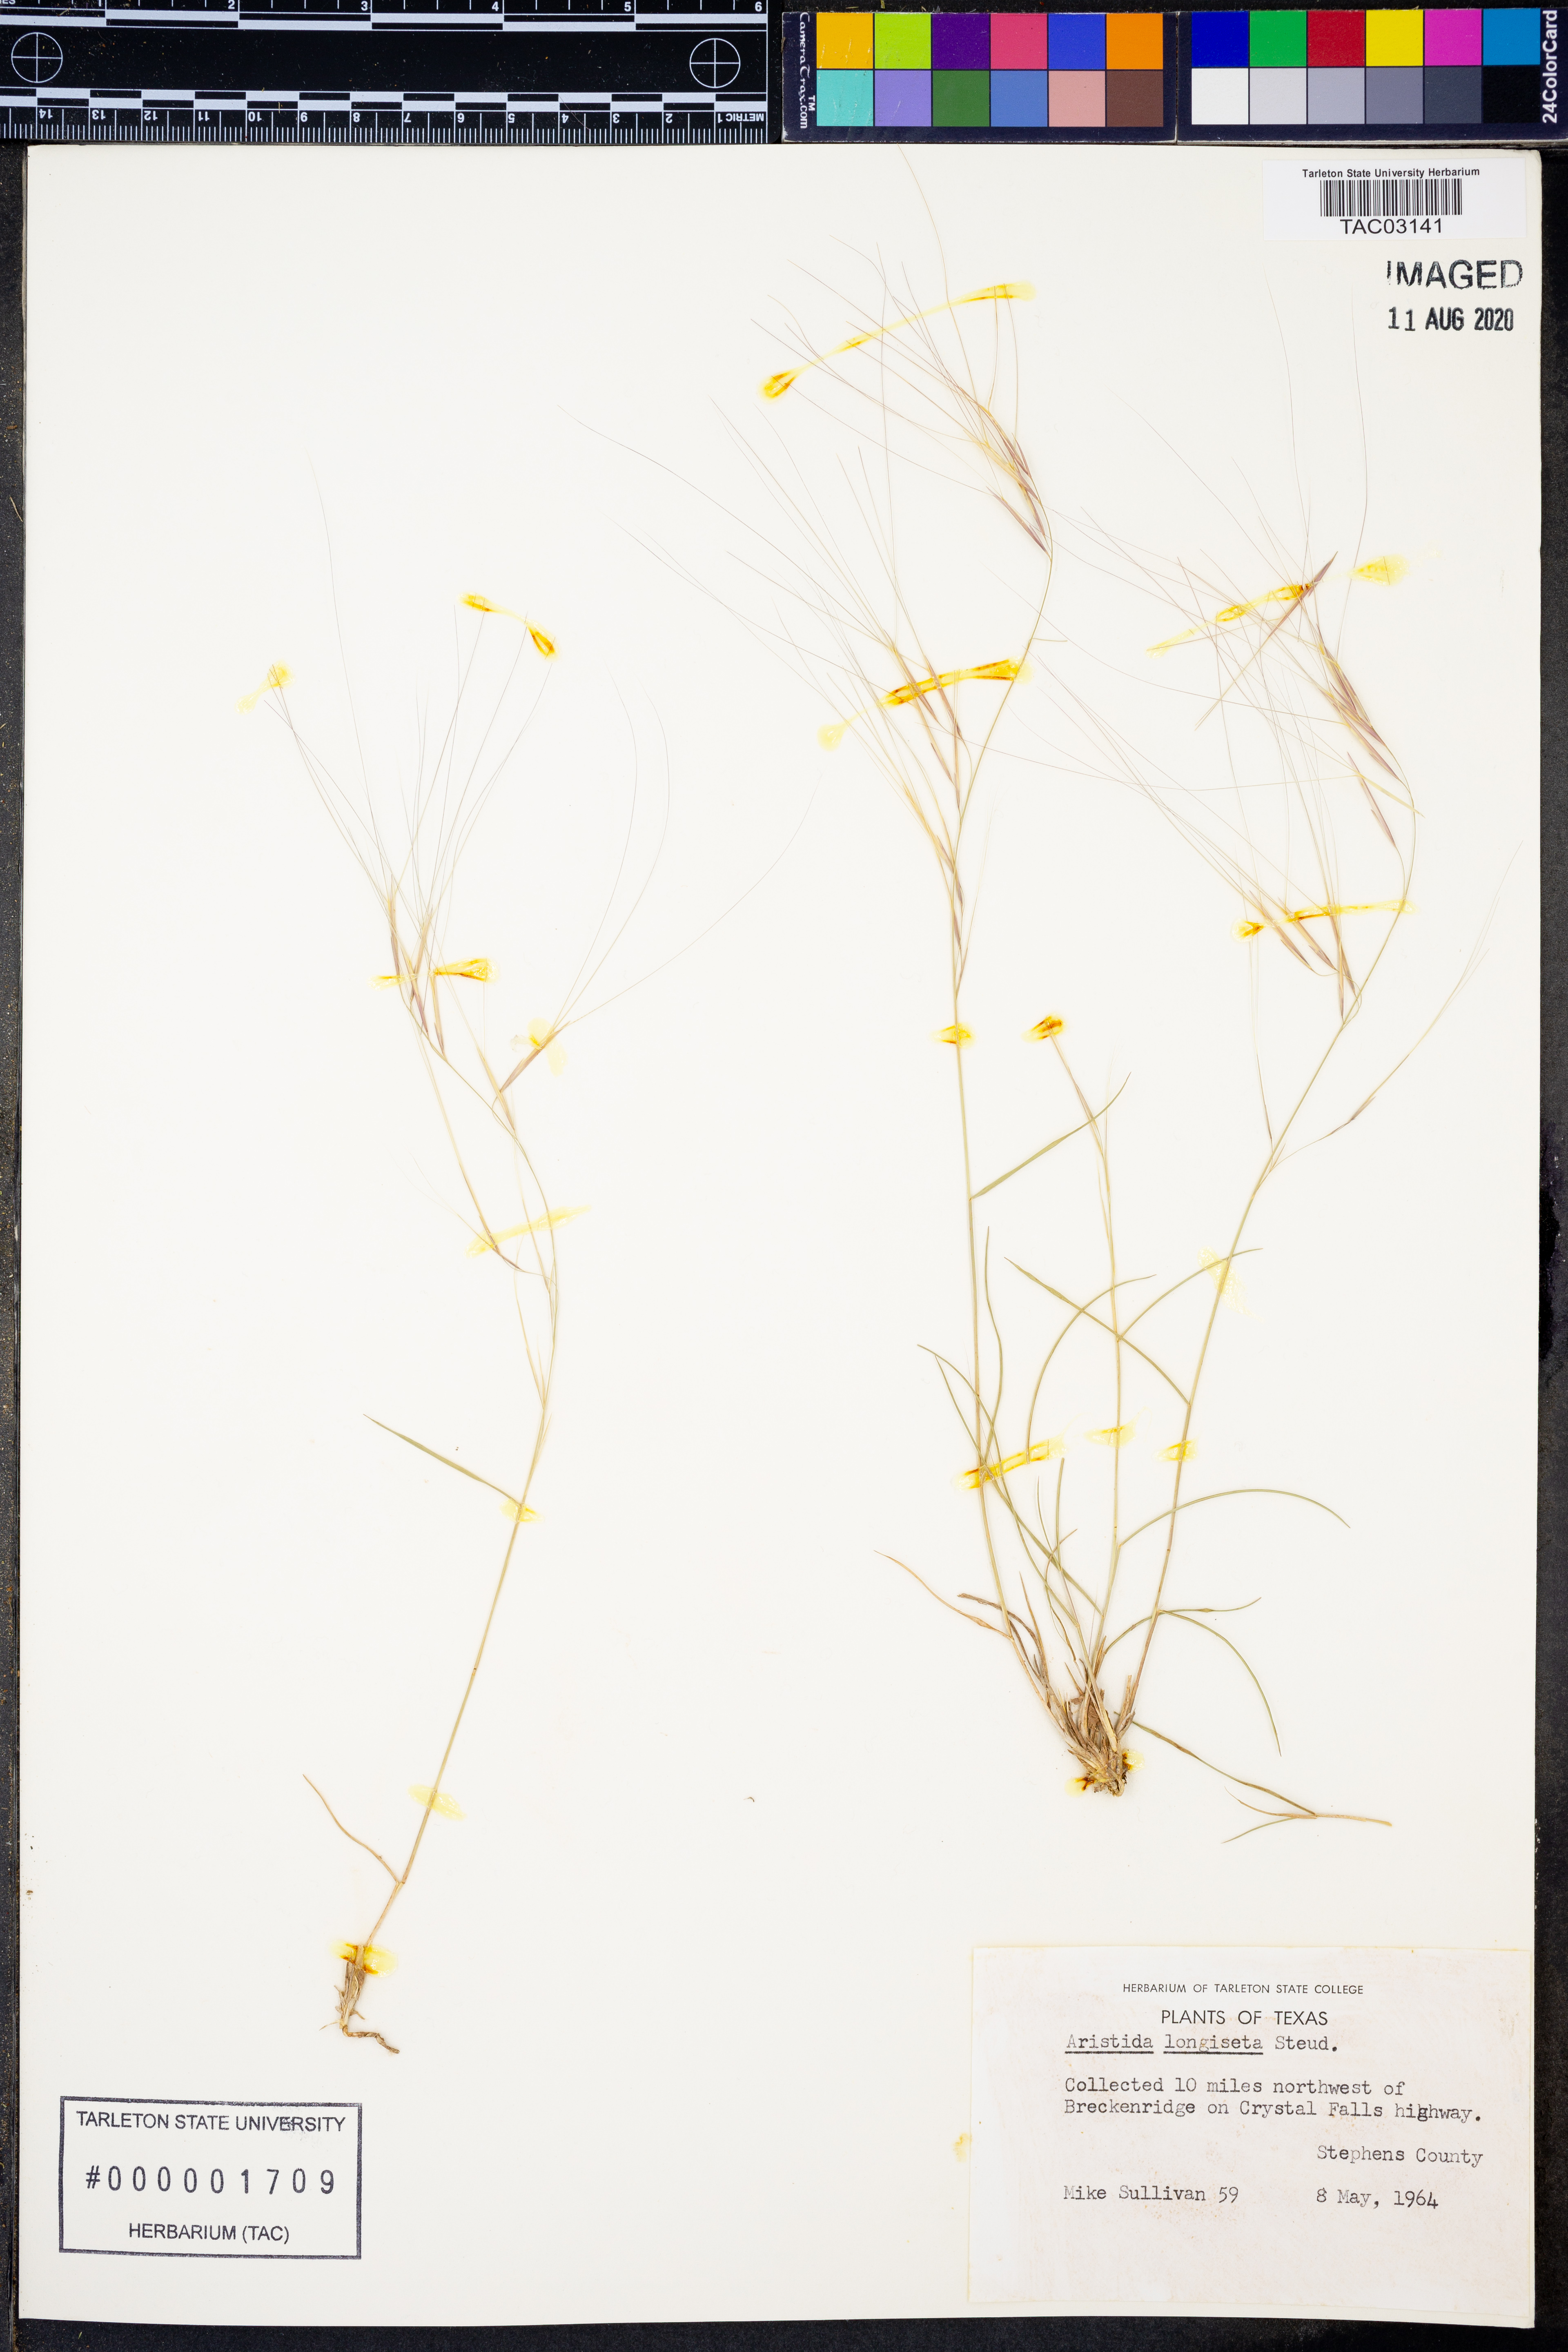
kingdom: Plantae
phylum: Tracheophyta
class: Liliopsida
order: Poales
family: Poaceae
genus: Aristida
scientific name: Aristida longiseta
